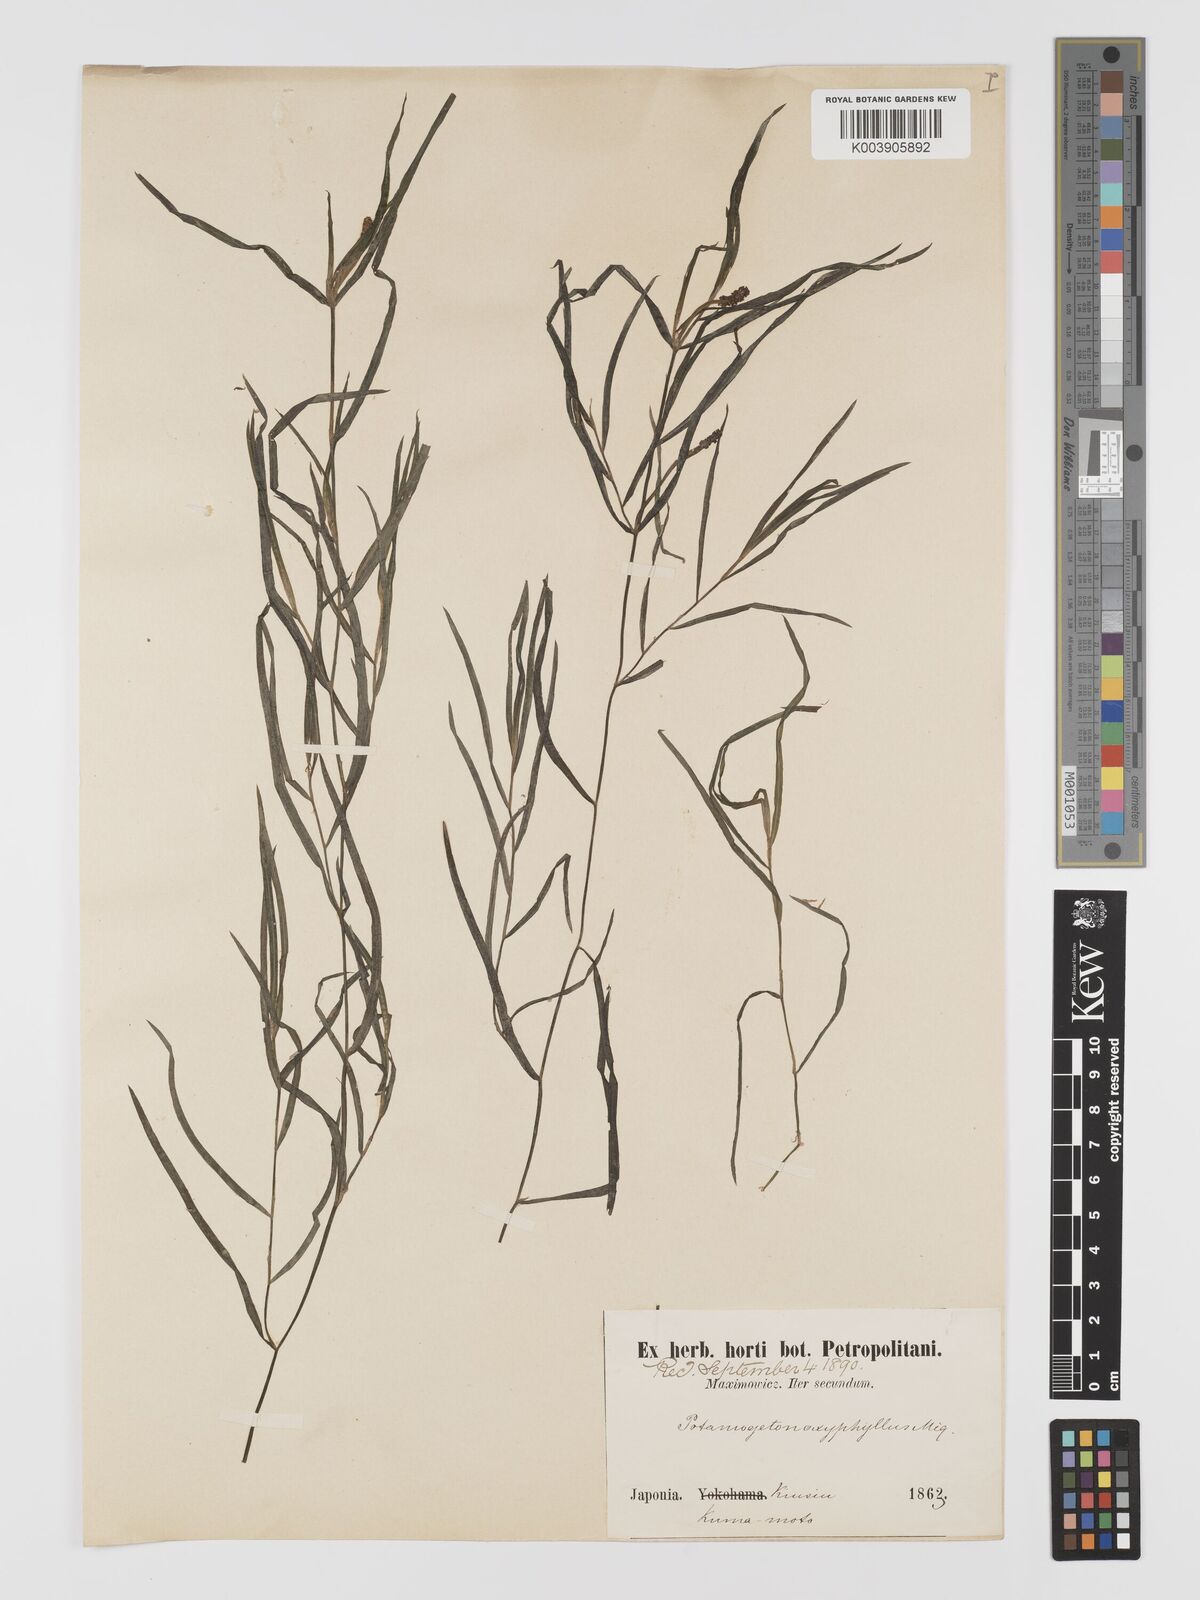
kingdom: Plantae
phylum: Tracheophyta
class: Liliopsida
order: Alismatales
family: Potamogetonaceae
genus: Potamogeton
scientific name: Potamogeton oxyphyllus
